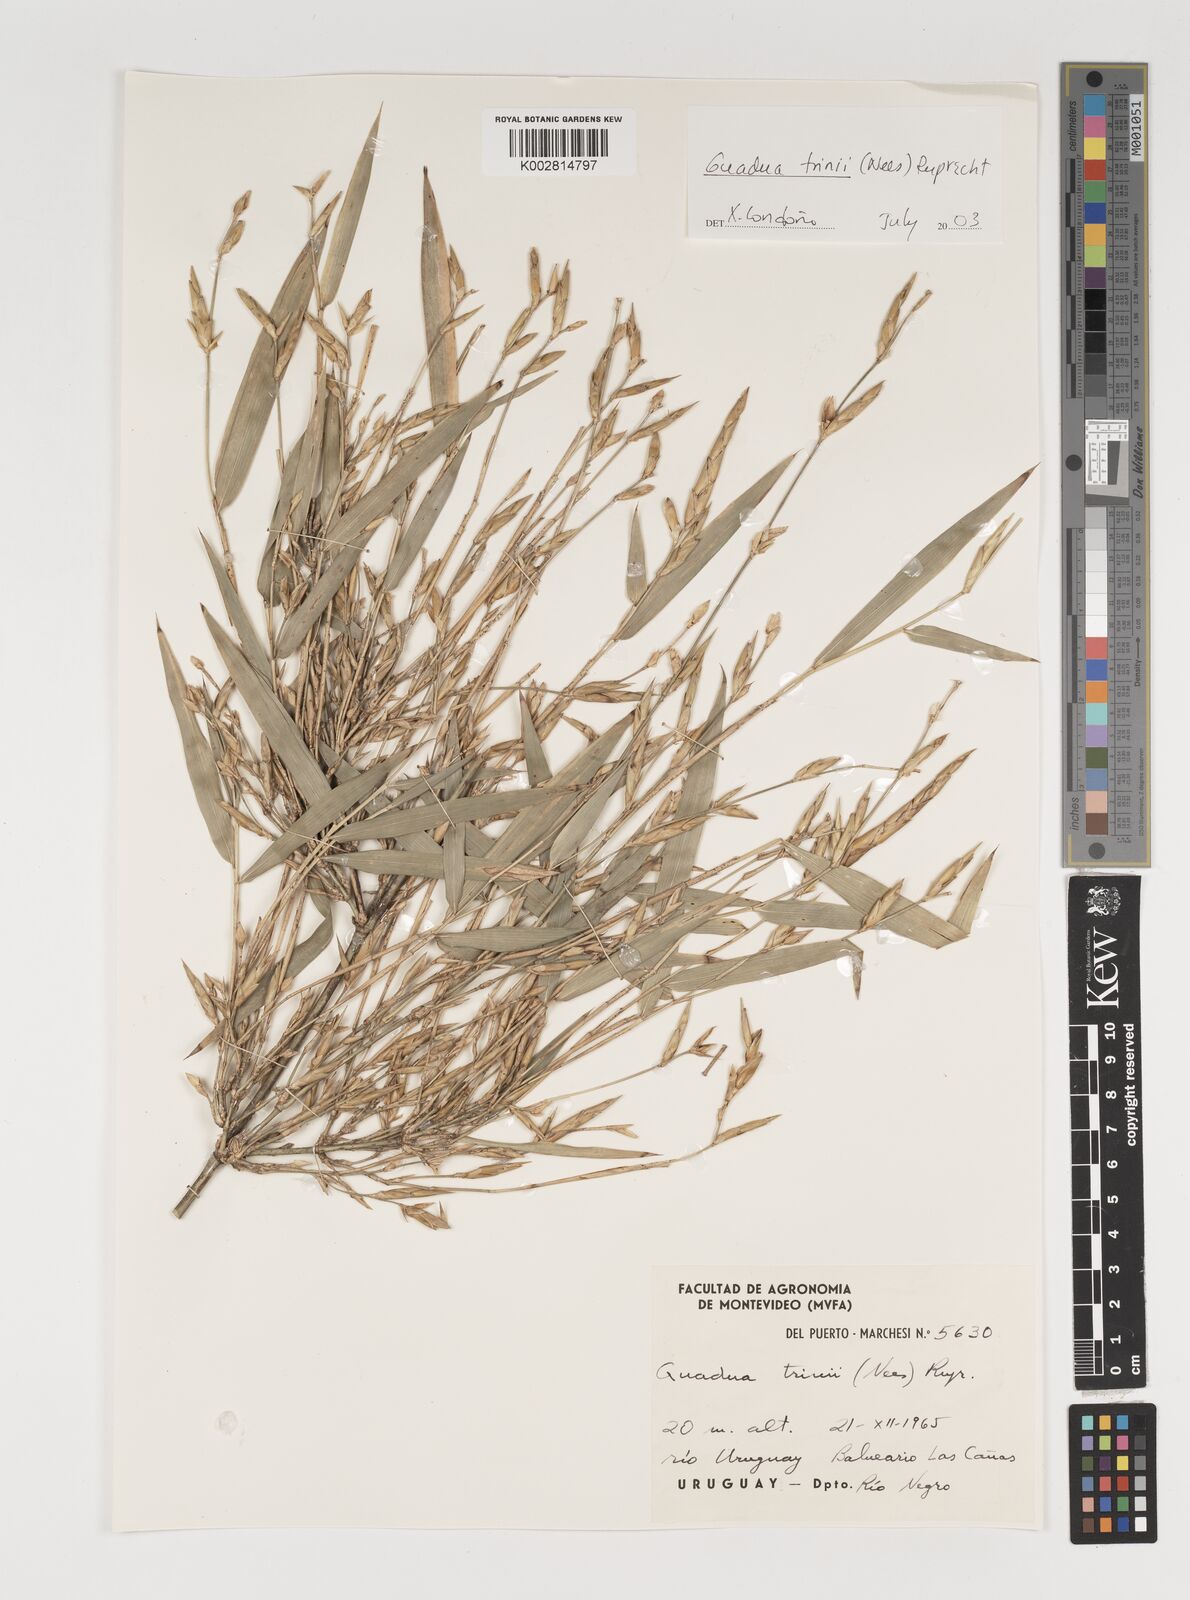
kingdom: Plantae
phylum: Tracheophyta
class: Liliopsida
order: Poales
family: Poaceae
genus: Guadua
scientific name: Guadua trinii
